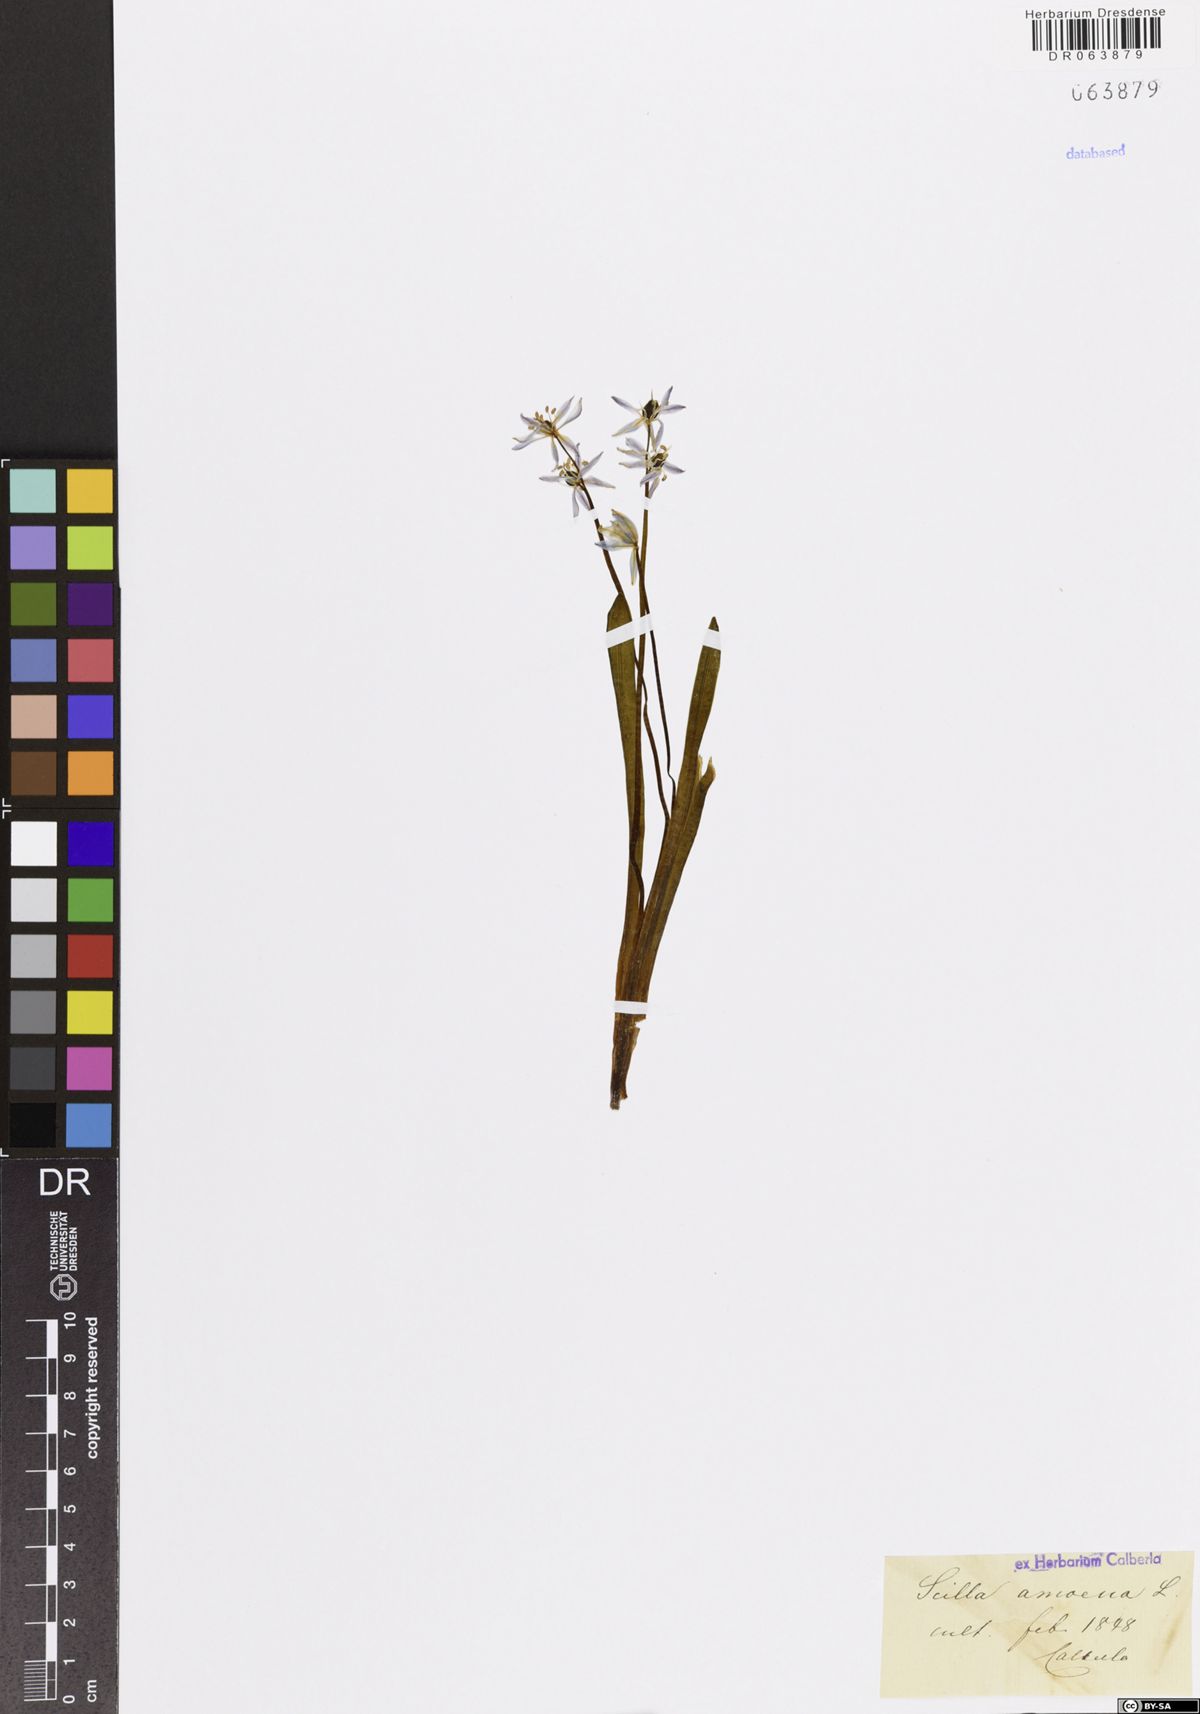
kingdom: Plantae
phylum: Tracheophyta
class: Liliopsida
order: Asparagales
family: Asparagaceae
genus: Scilla
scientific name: Scilla amoena
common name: Star-hyacinth
